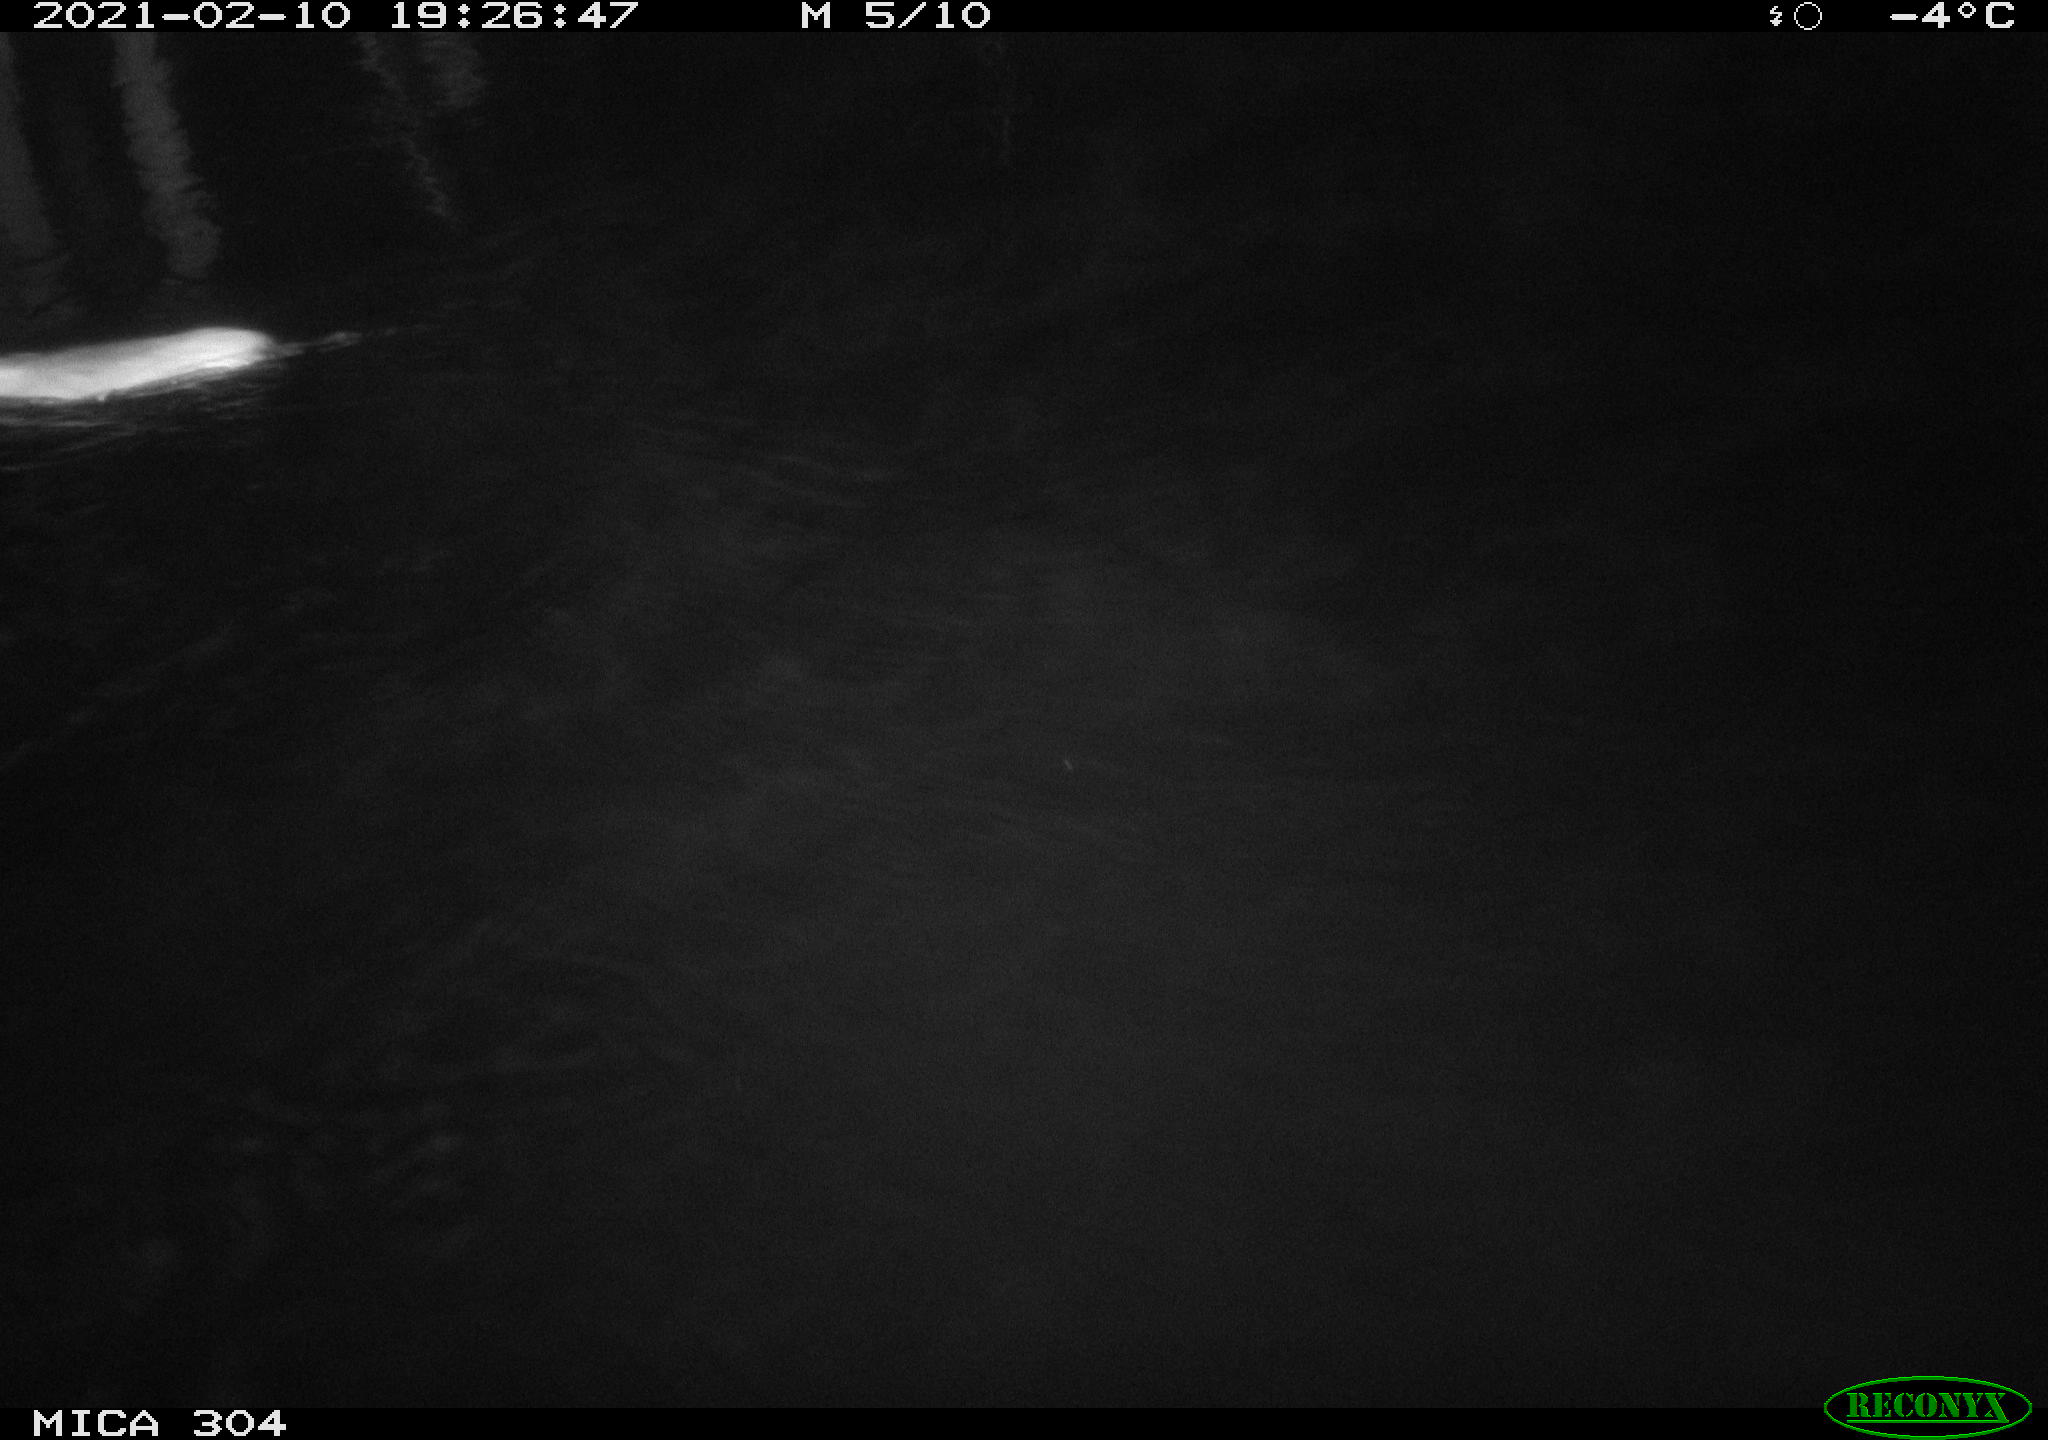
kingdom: Animalia
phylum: Chordata
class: Mammalia
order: Rodentia
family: Muridae
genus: Rattus
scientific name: Rattus norvegicus
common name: Brown rat
